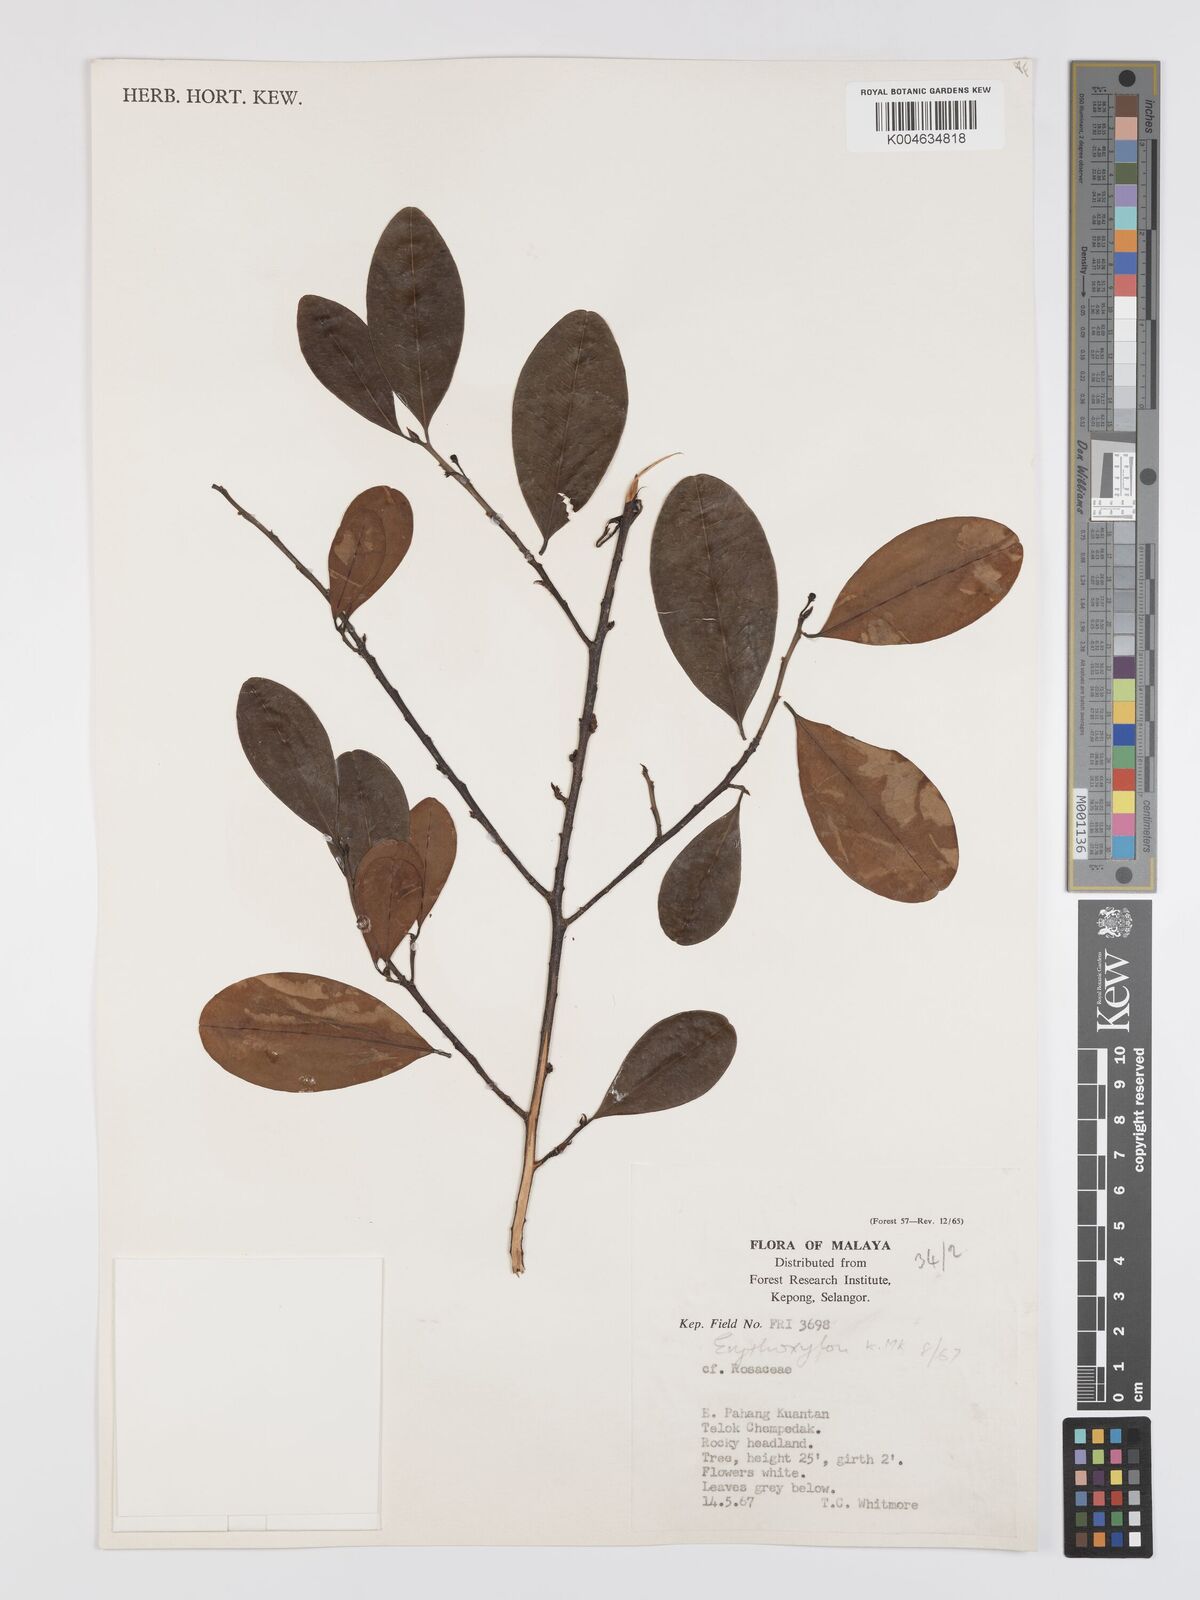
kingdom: Plantae
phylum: Tracheophyta
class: Magnoliopsida
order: Malpighiales
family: Erythroxylaceae
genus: Erythroxylum
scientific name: Erythroxylum cuneatum
